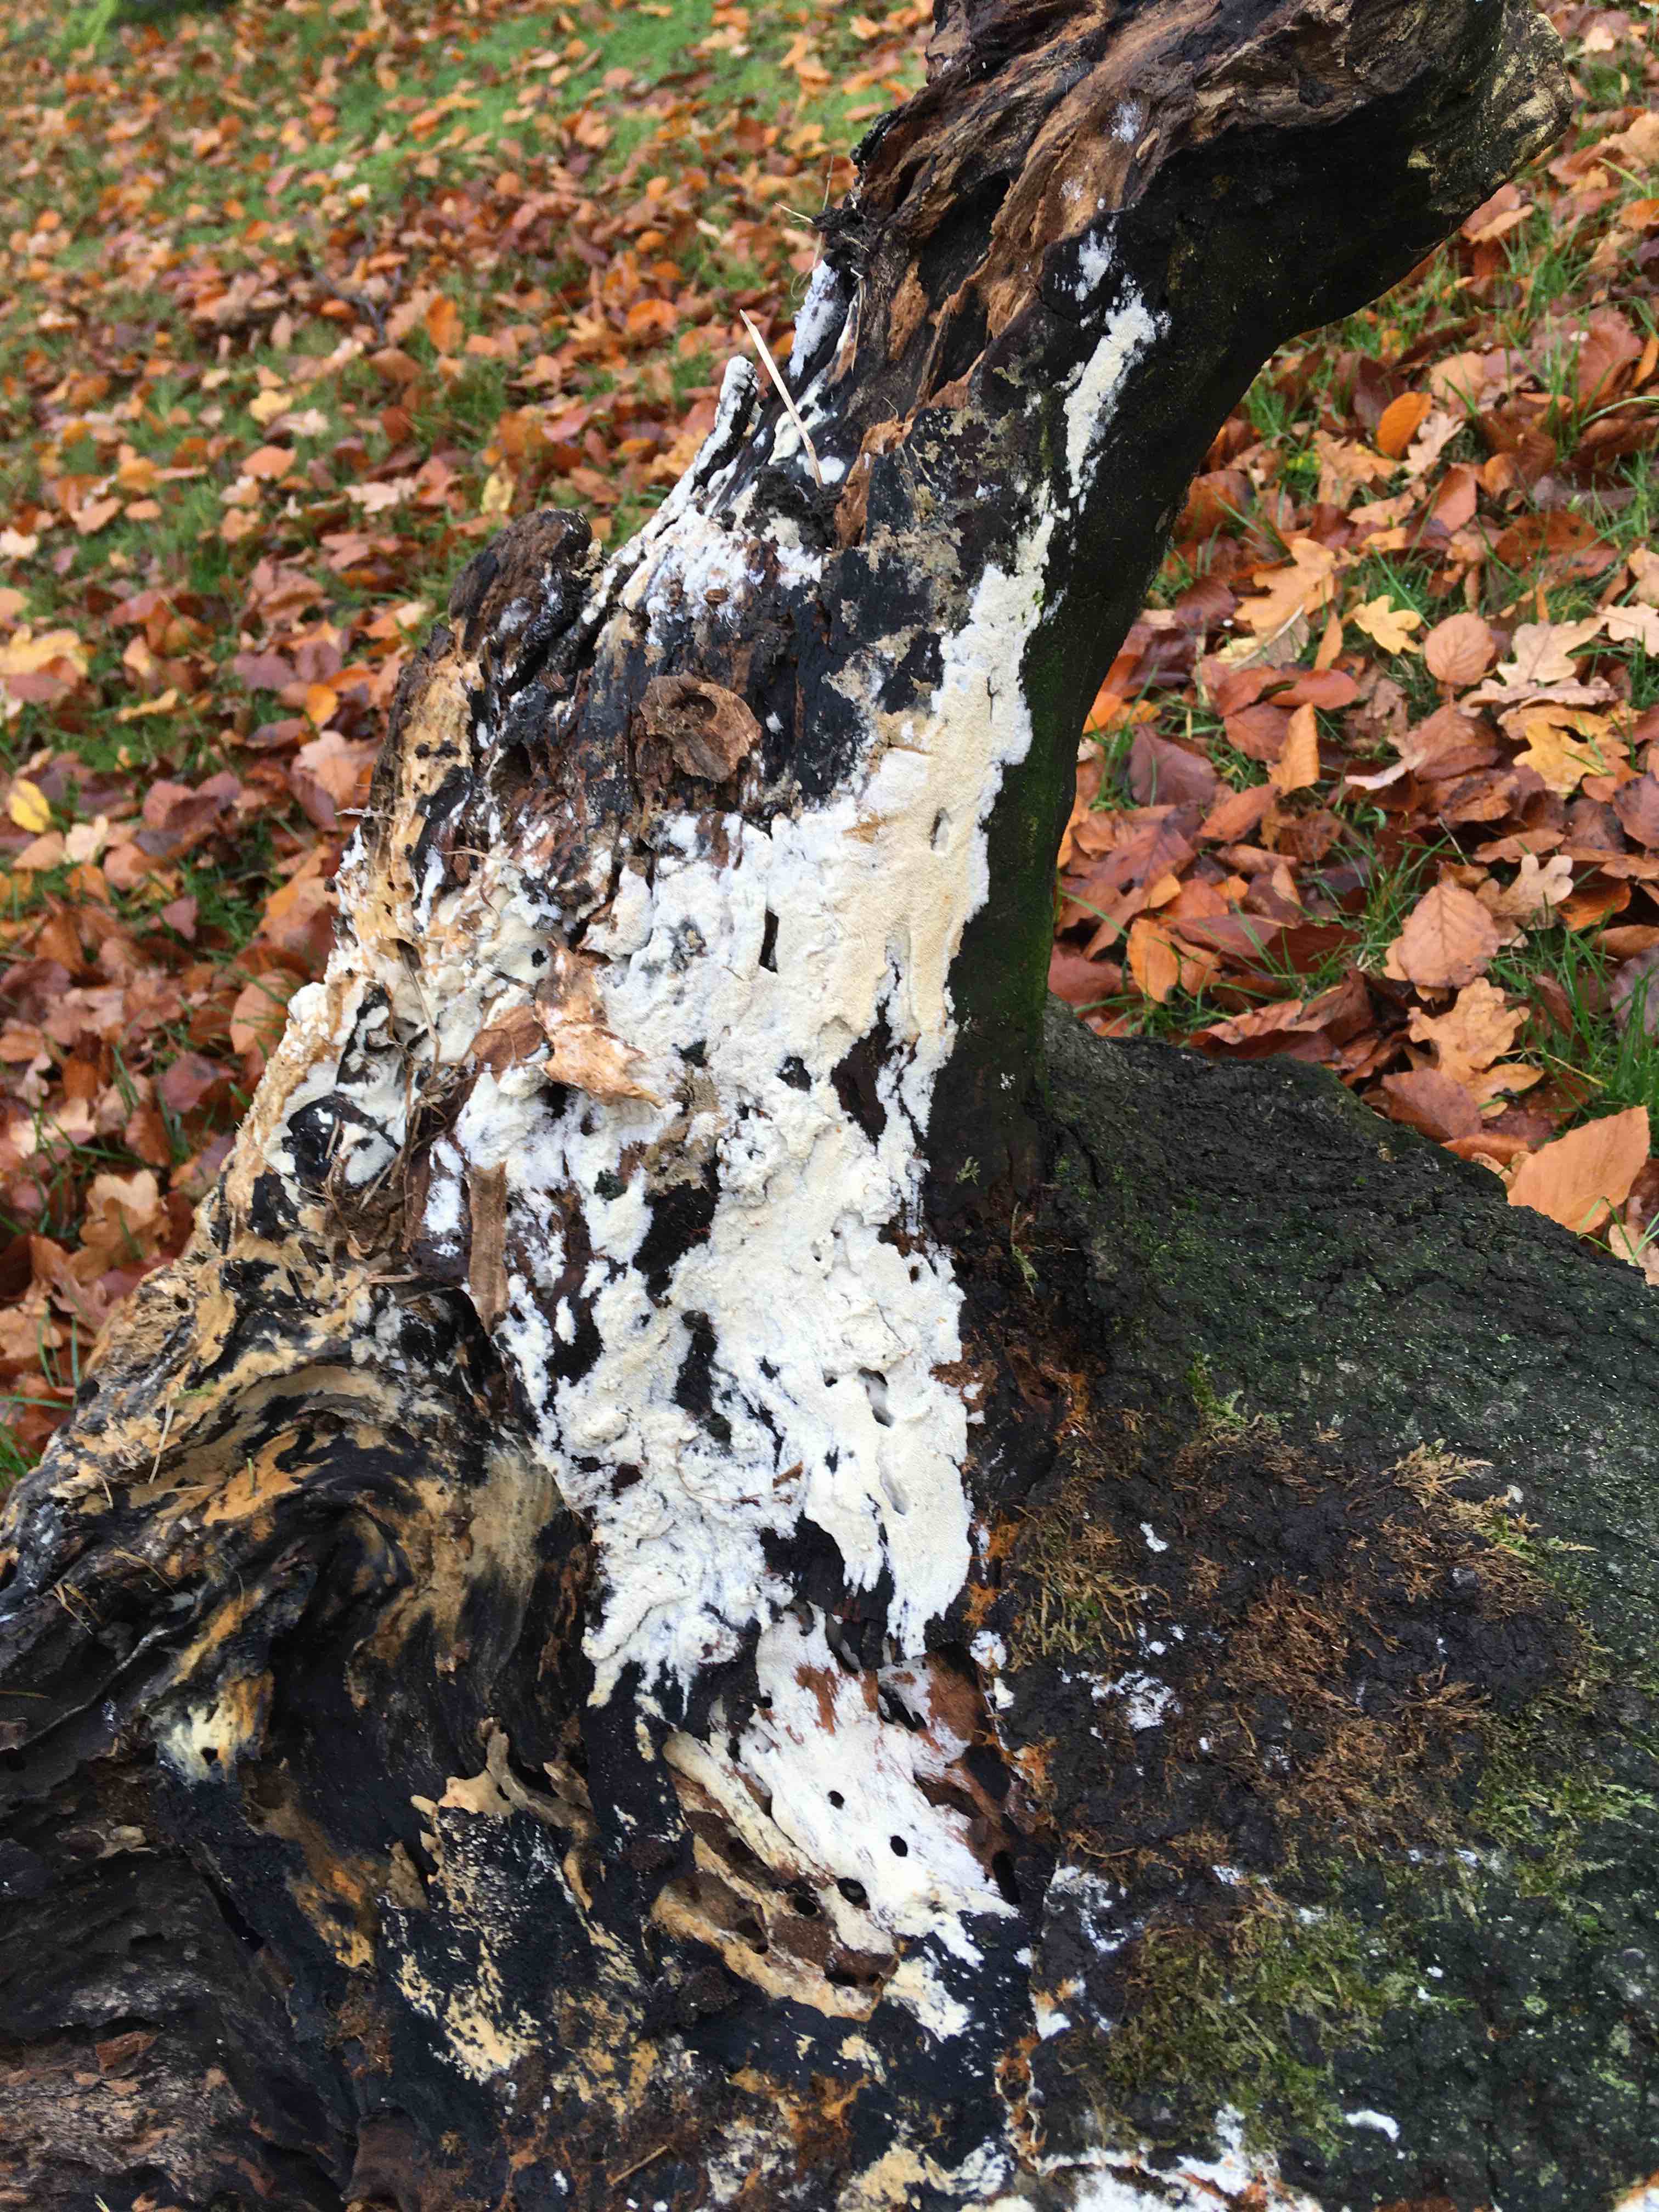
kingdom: Fungi
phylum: Basidiomycota
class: Agaricomycetes
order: Hymenochaetales
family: Schizoporaceae
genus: Xylodon
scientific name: Xylodon
